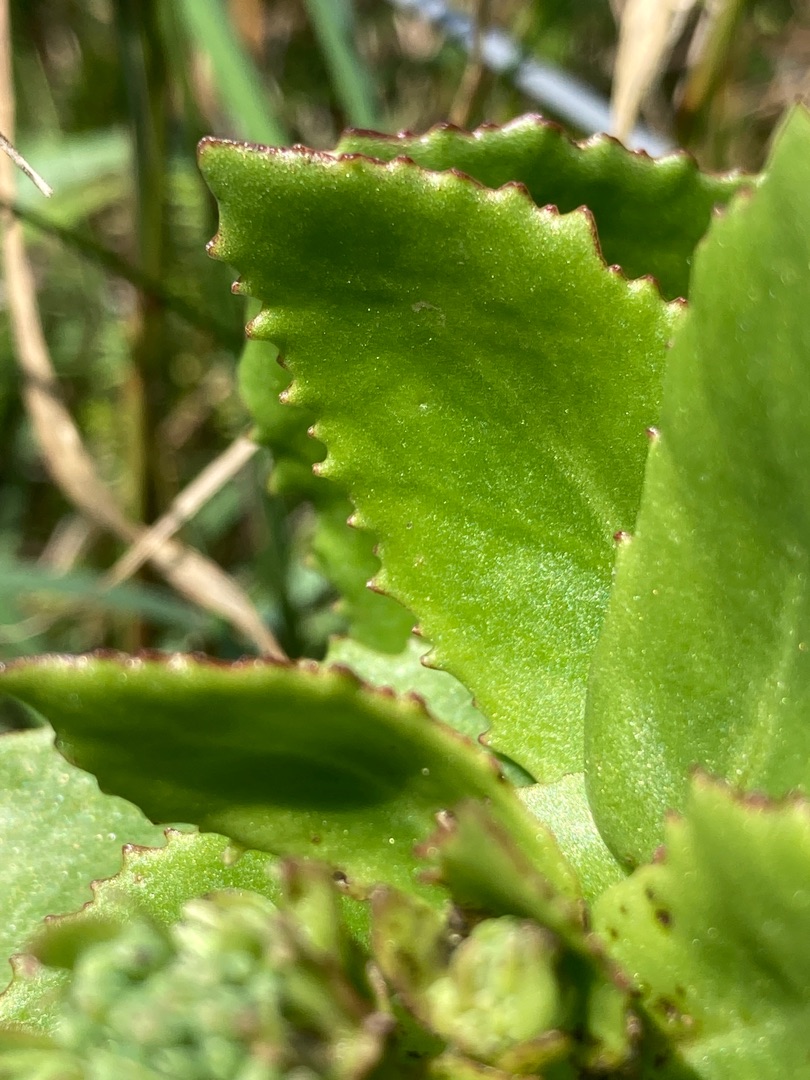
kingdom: Plantae
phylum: Tracheophyta
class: Magnoliopsida
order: Saxifragales
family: Crassulaceae
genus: Hylotelephium
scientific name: Hylotelephium telephium
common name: Sankthansurt
